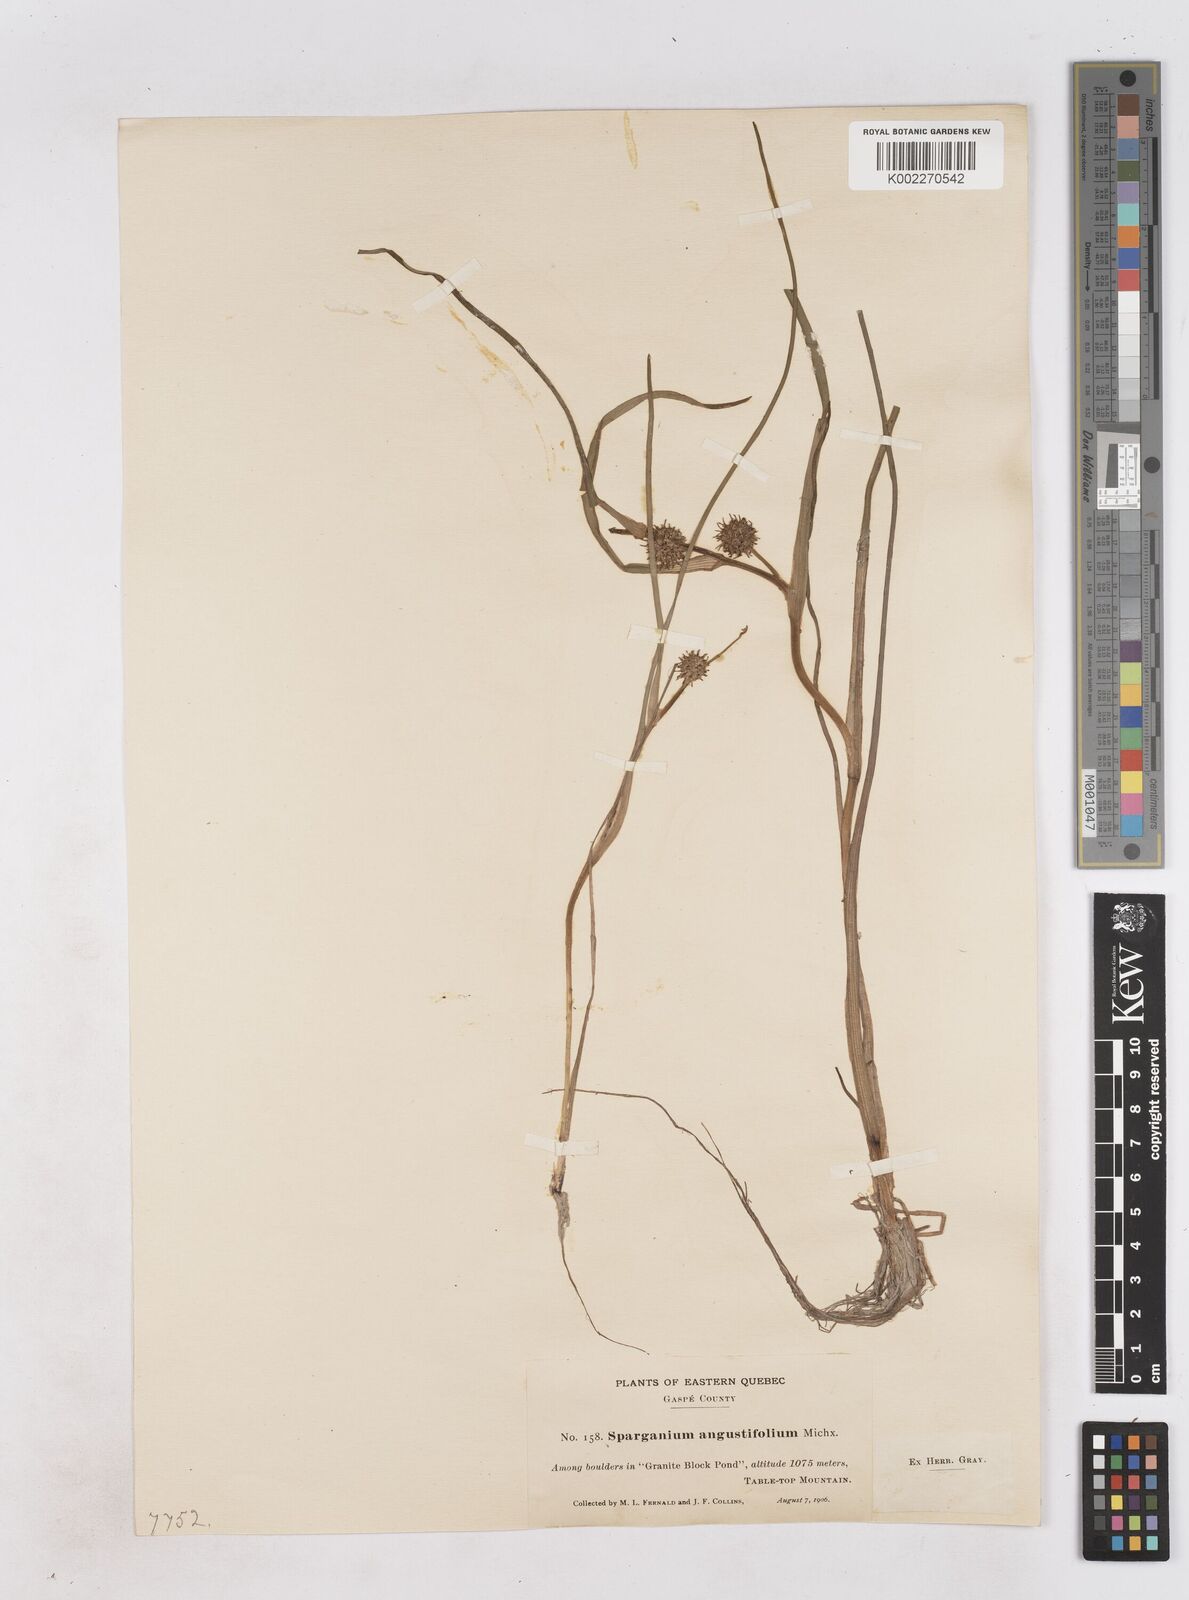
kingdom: Plantae
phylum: Tracheophyta
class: Liliopsida
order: Poales
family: Typhaceae
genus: Sparganium
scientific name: Sparganium angustifolium
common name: Floating bur-reed
